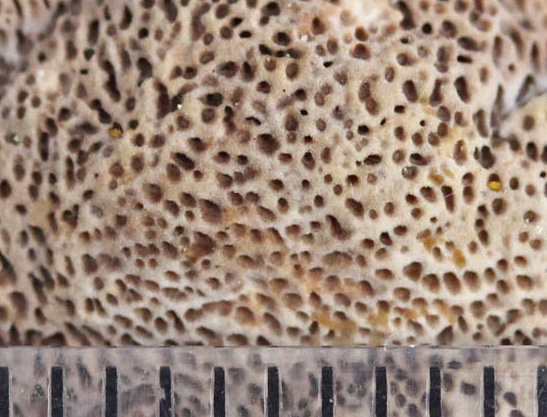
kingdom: Fungi
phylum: Basidiomycota
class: Agaricomycetes
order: Hymenochaetales
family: Hymenochaetaceae
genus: Xanthoporia
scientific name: Xanthoporia radiata
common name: elle-spejlporesvamp
